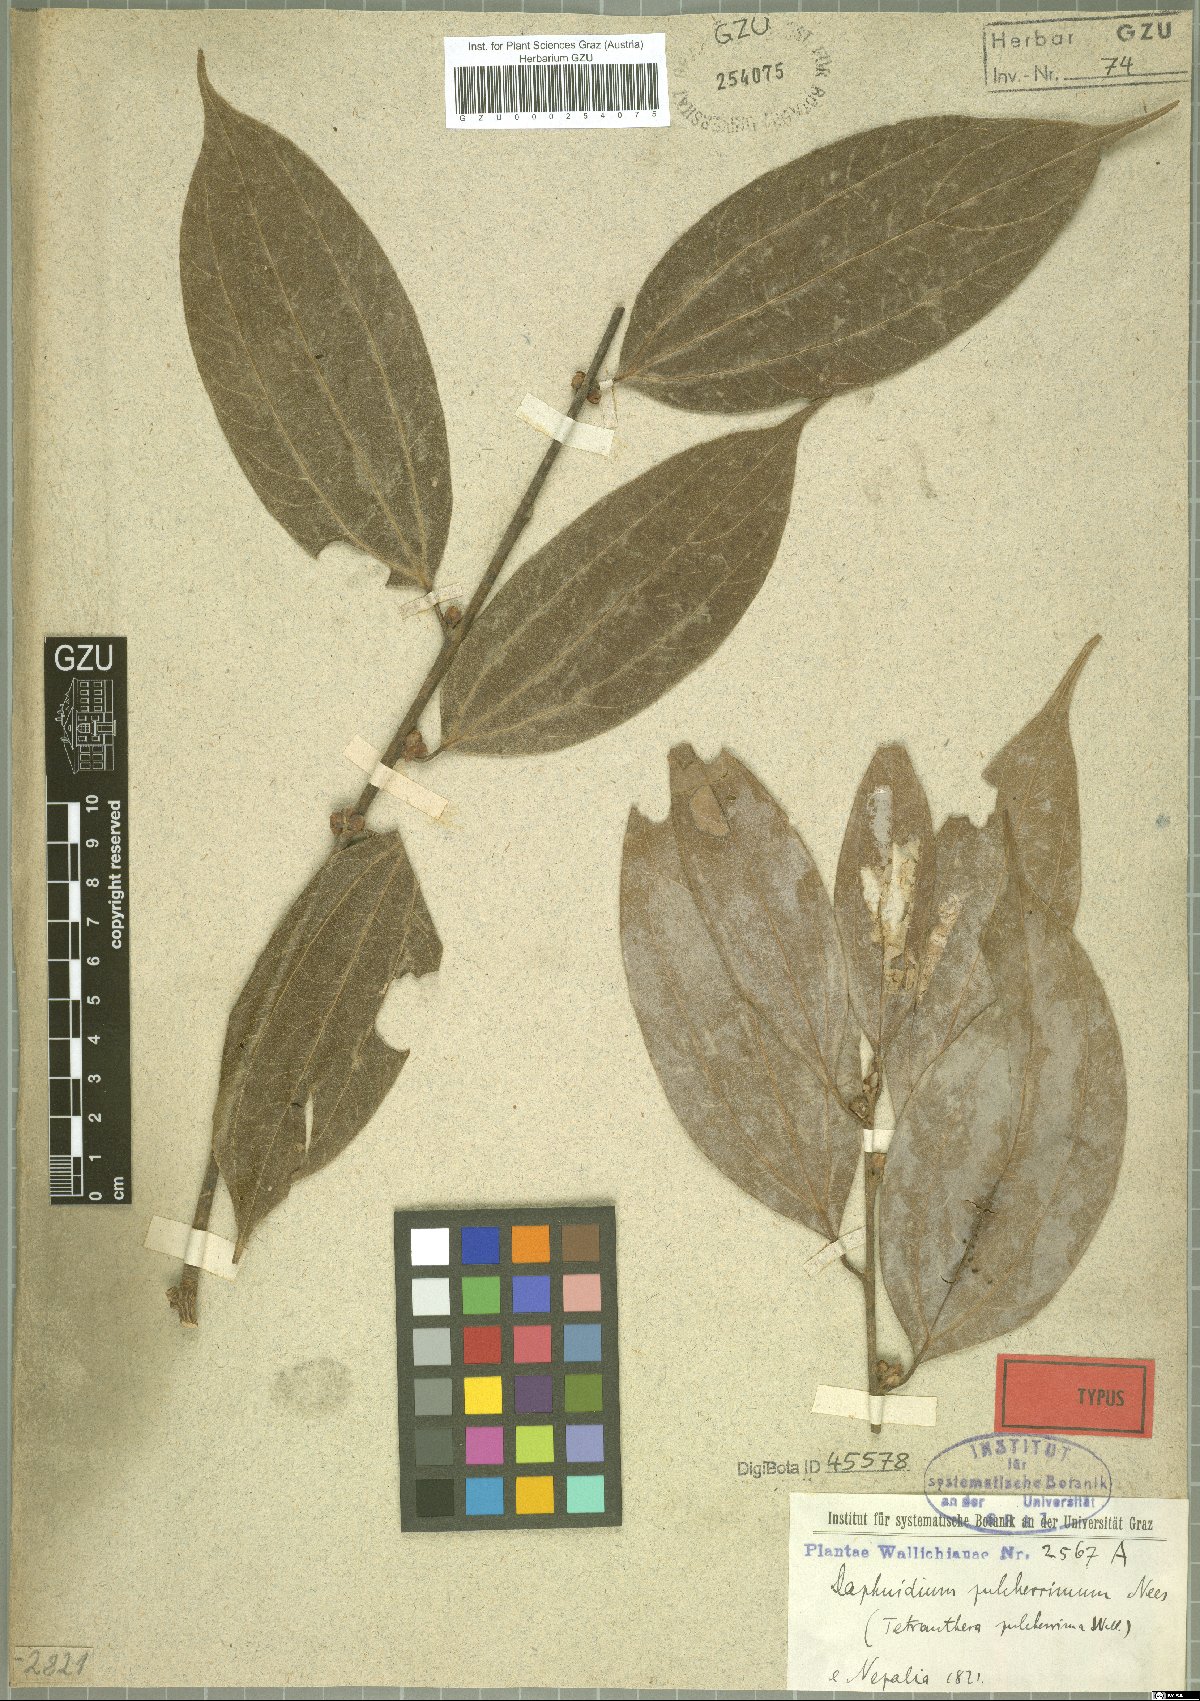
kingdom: Plantae
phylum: Tracheophyta
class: Magnoliopsida
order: Laurales
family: Lauraceae
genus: Lindera
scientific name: Lindera pulcherrima
